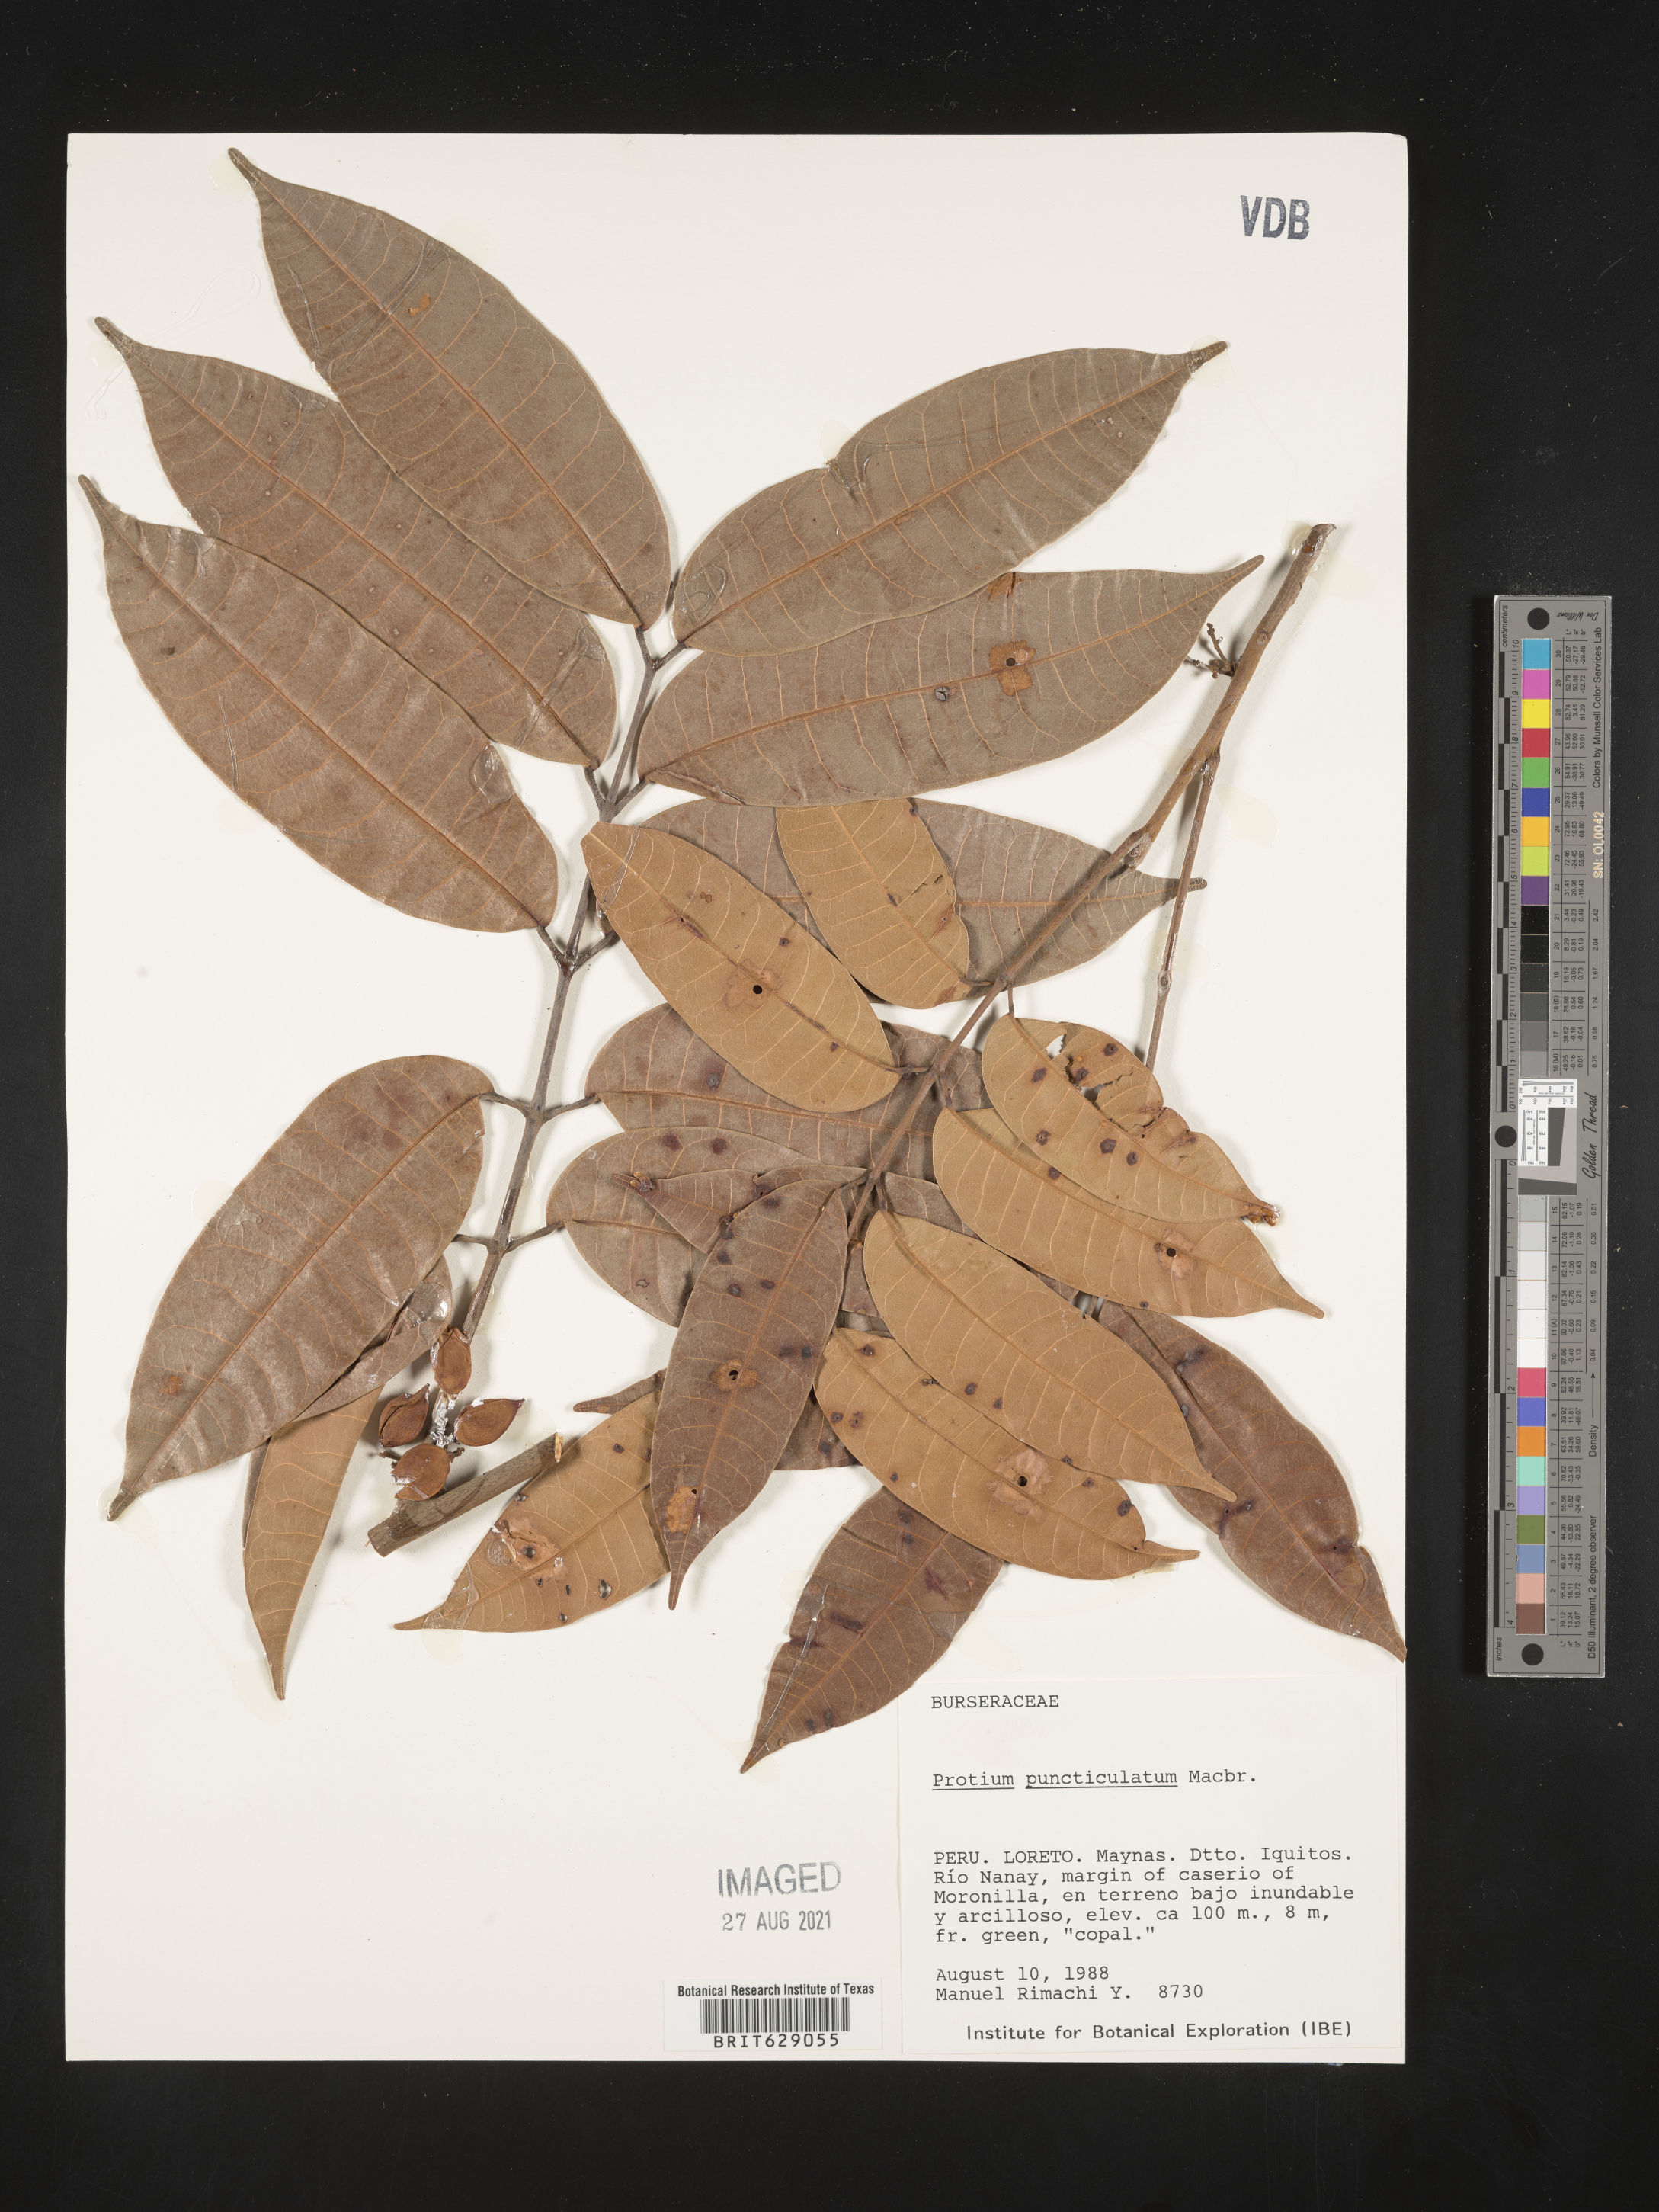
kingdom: Plantae
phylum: Tracheophyta
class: Magnoliopsida
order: Sapindales
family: Burseraceae
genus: Protium
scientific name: Protium puncticulatum
